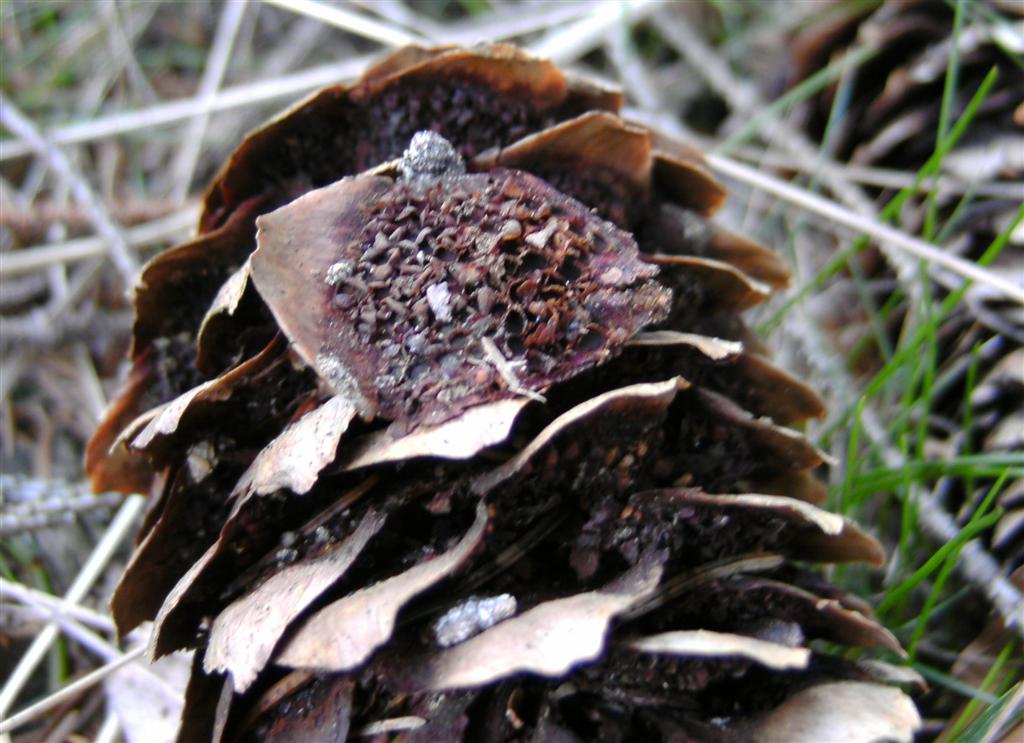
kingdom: Fungi
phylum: Basidiomycota
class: Pucciniomycetes
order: Pucciniales
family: Pucciniastraceae
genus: Thekopsora
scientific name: Thekopsora areolata
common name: grankogle-nålerust
